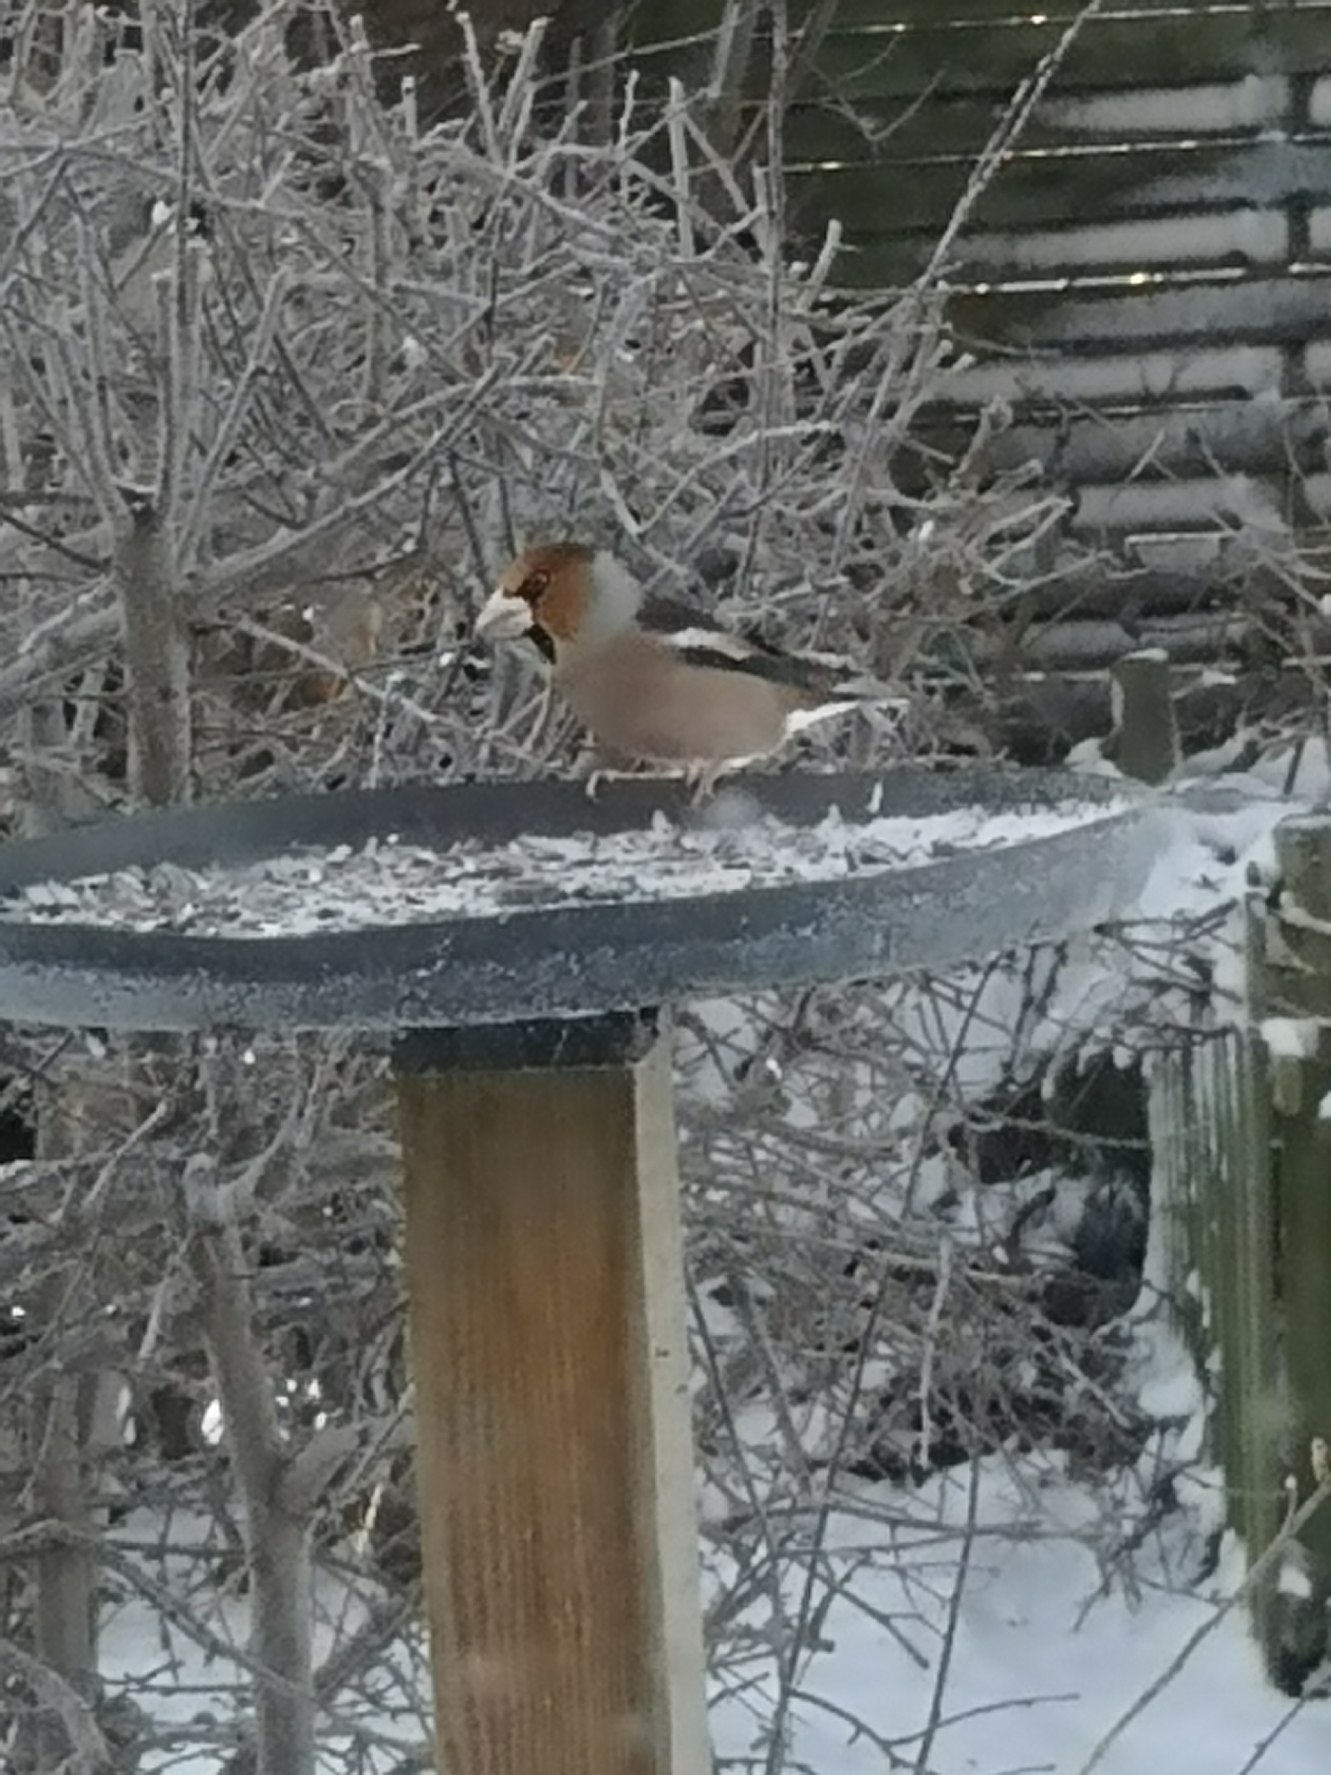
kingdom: Animalia
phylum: Chordata
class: Aves
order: Passeriformes
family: Fringillidae
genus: Coccothraustes
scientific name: Coccothraustes coccothraustes
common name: Kernebider
